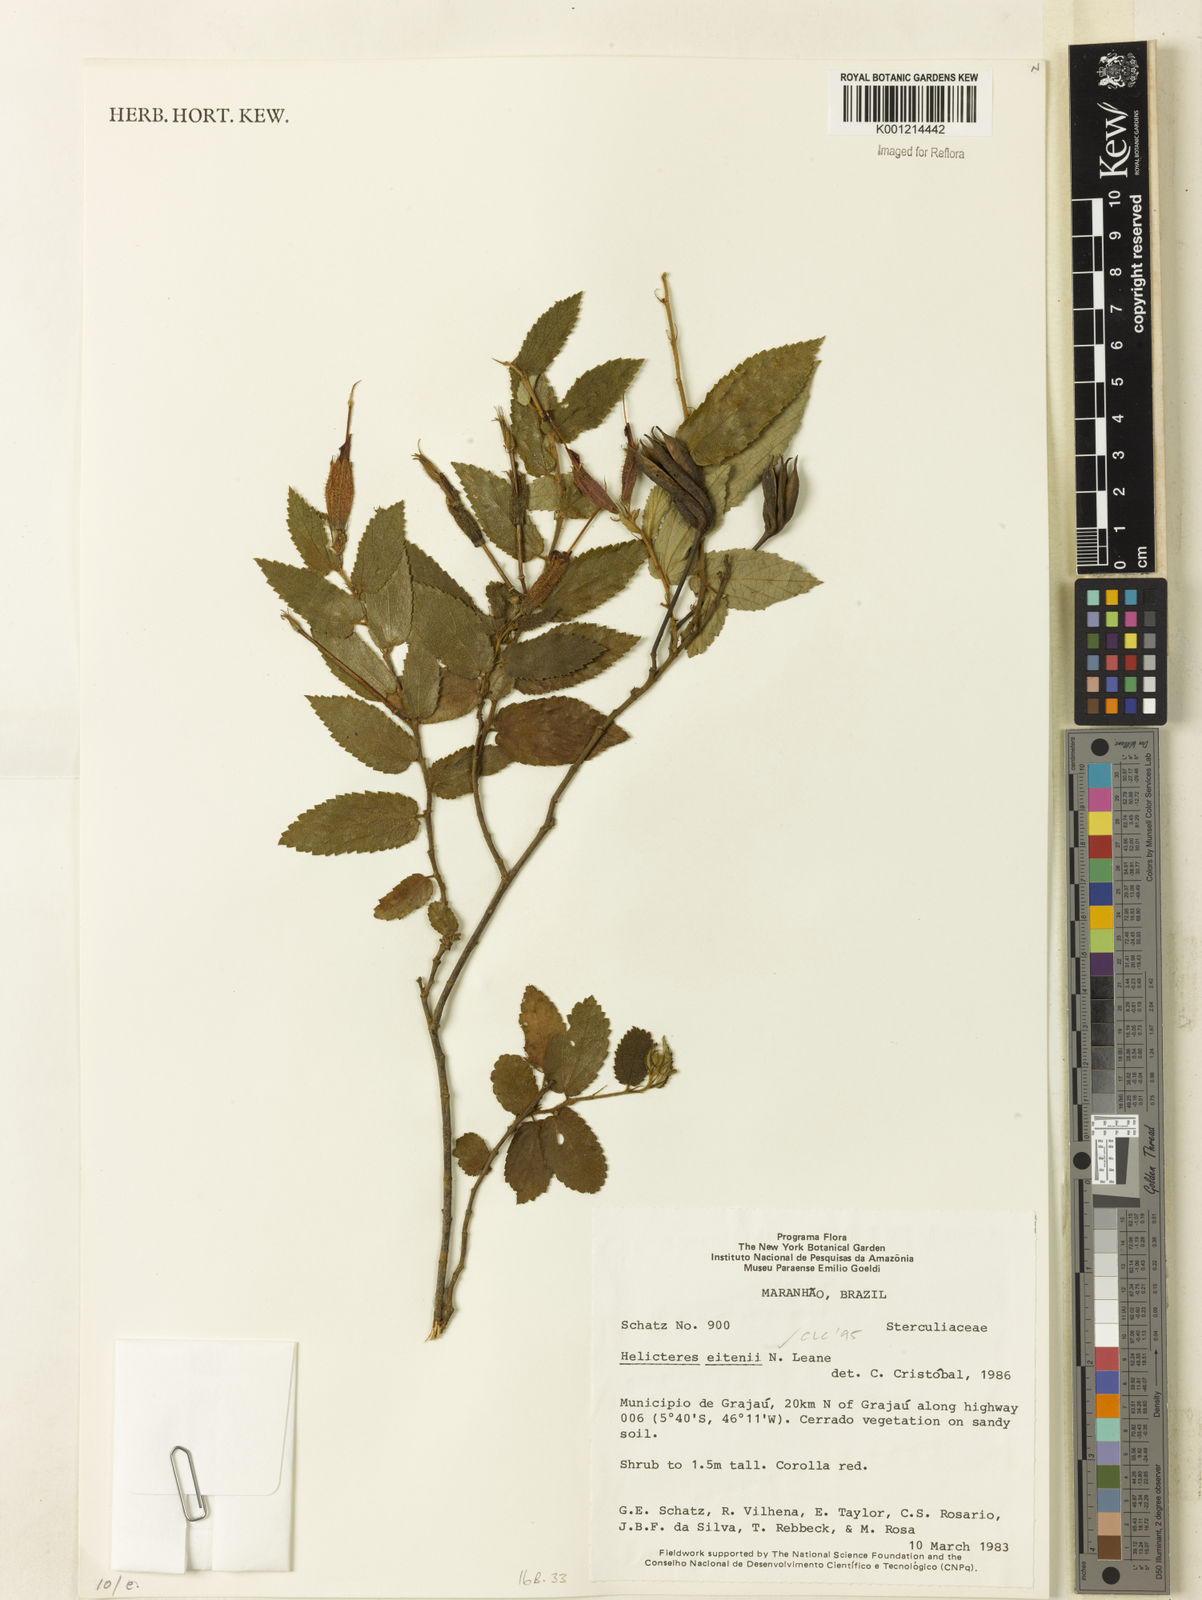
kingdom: Plantae
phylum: Tracheophyta
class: Magnoliopsida
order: Malvales
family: Malvaceae
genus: Helicteres
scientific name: Helicteres eitenii
